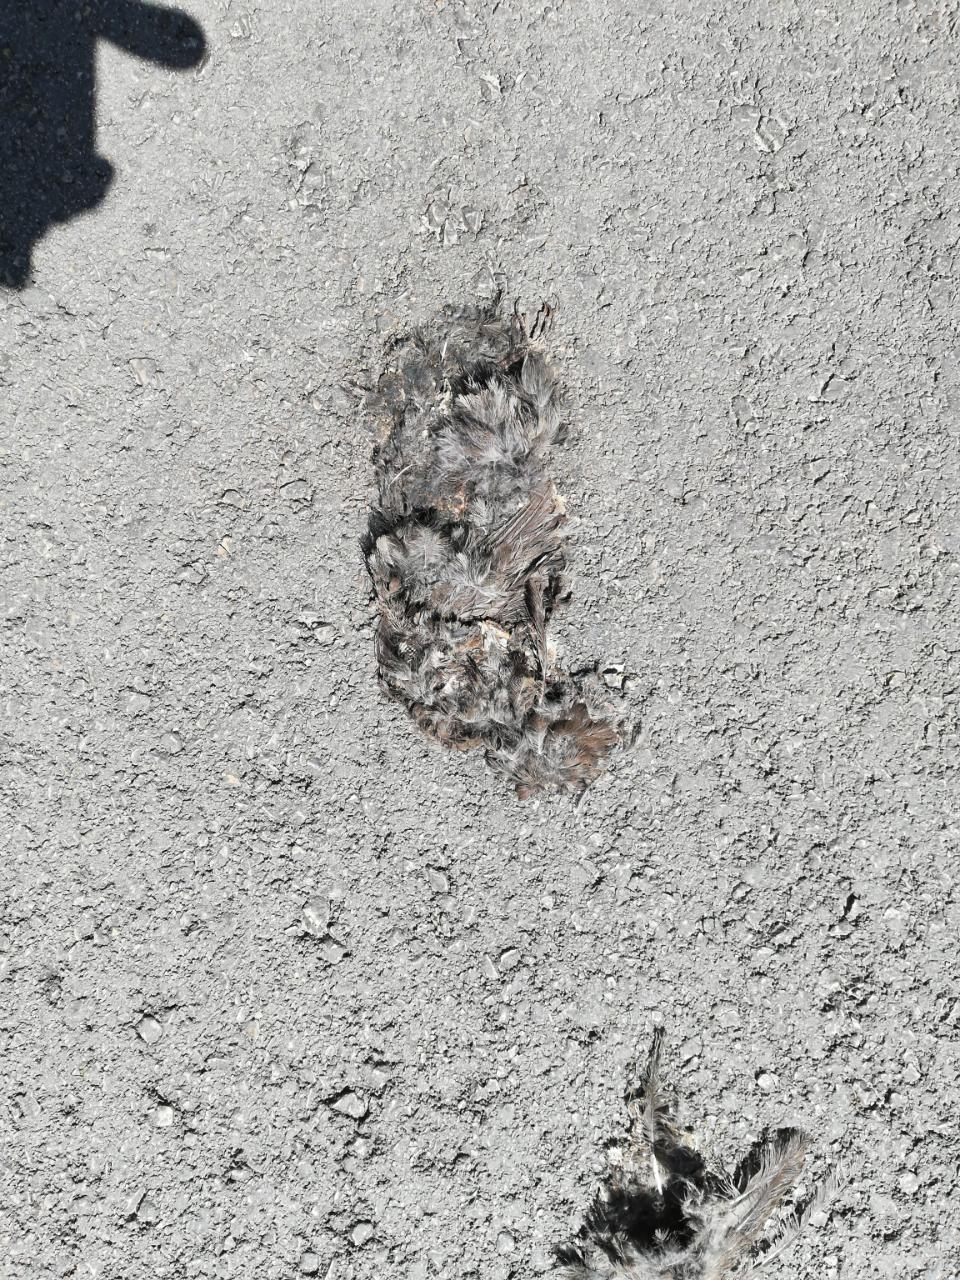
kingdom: Animalia
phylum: Chordata
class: Aves
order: Passeriformes
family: Turdidae
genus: Turdus
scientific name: Turdus merula
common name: Common blackbird
